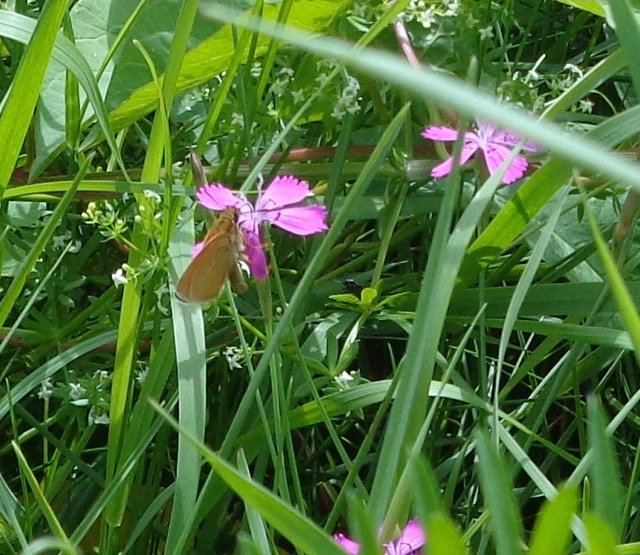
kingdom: Animalia
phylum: Arthropoda
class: Insecta
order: Lepidoptera
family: Hesperiidae
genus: Ancyloxypha
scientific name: Ancyloxypha numitor
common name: Least Skipper
